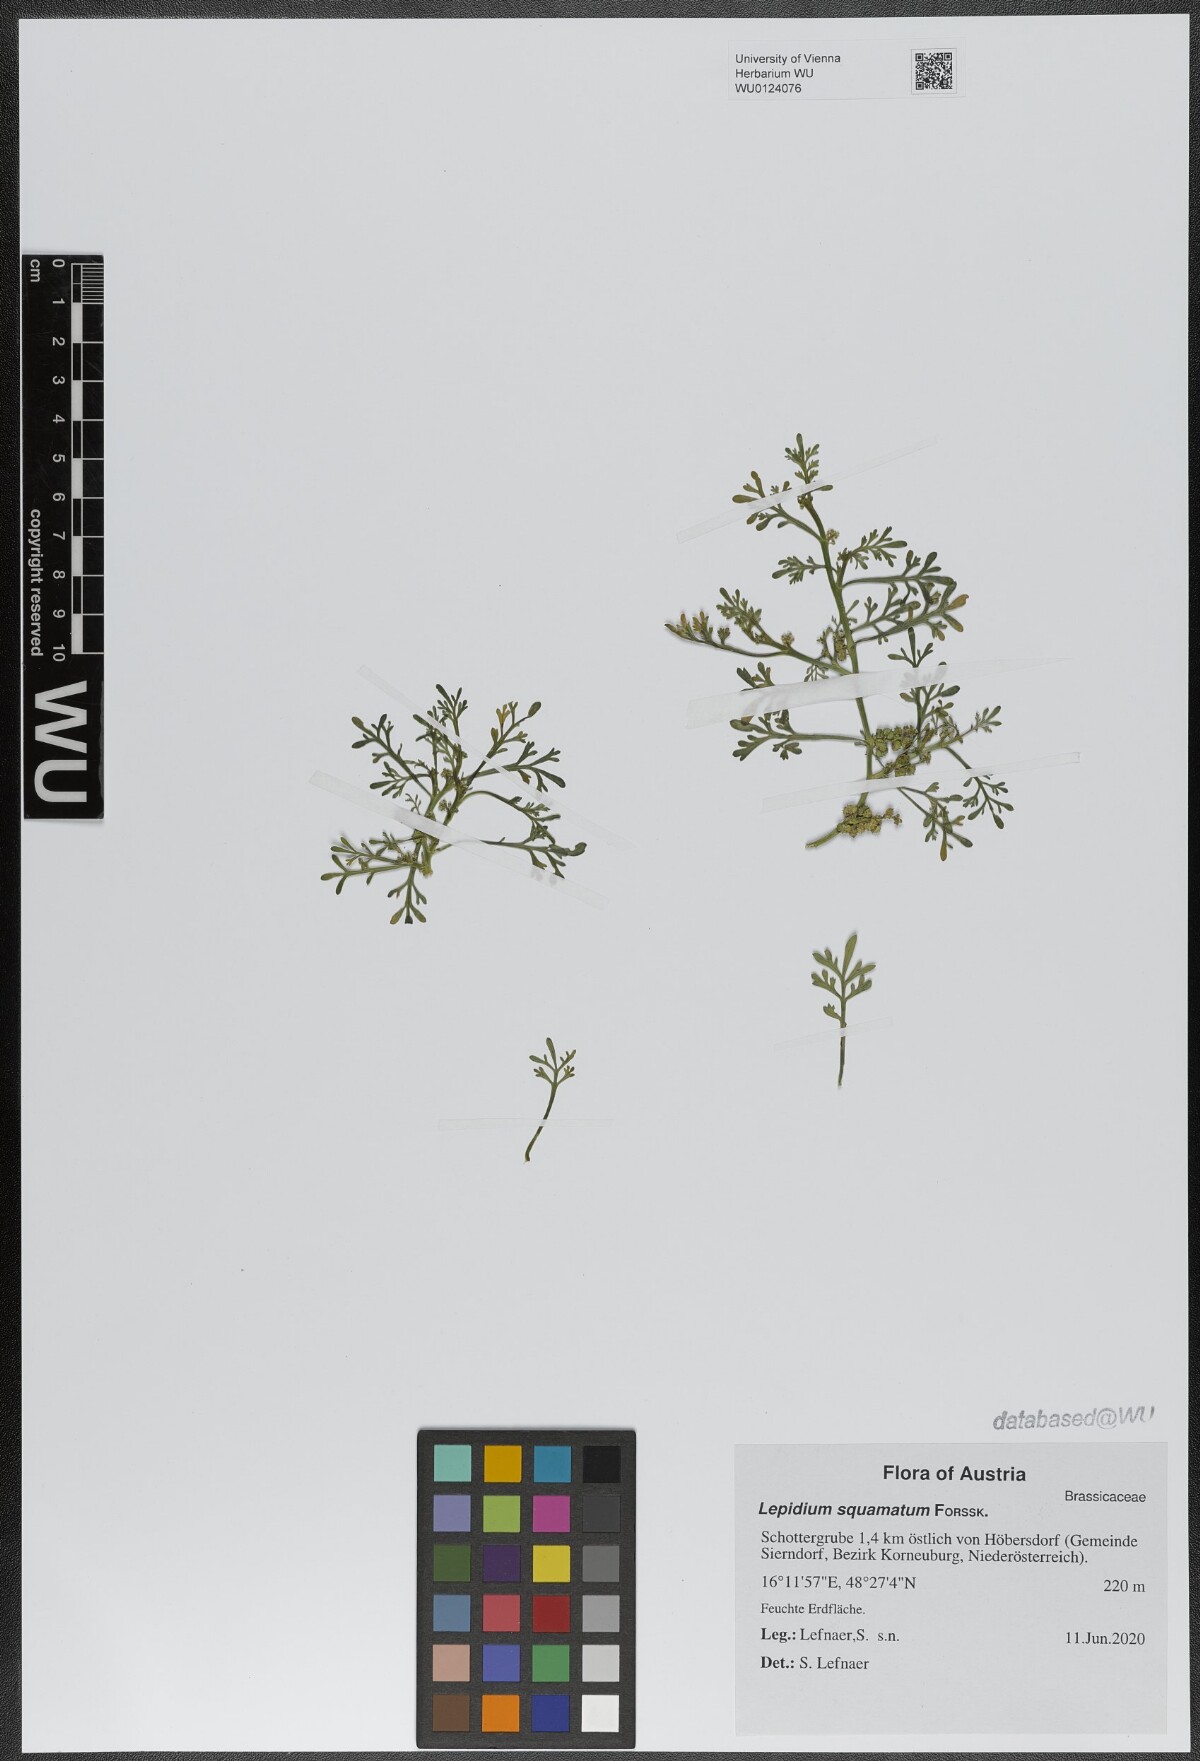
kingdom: Plantae
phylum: Tracheophyta
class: Magnoliopsida
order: Brassicales
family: Brassicaceae
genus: Lepidium
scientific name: Lepidium coronopus
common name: Greater swinecress
